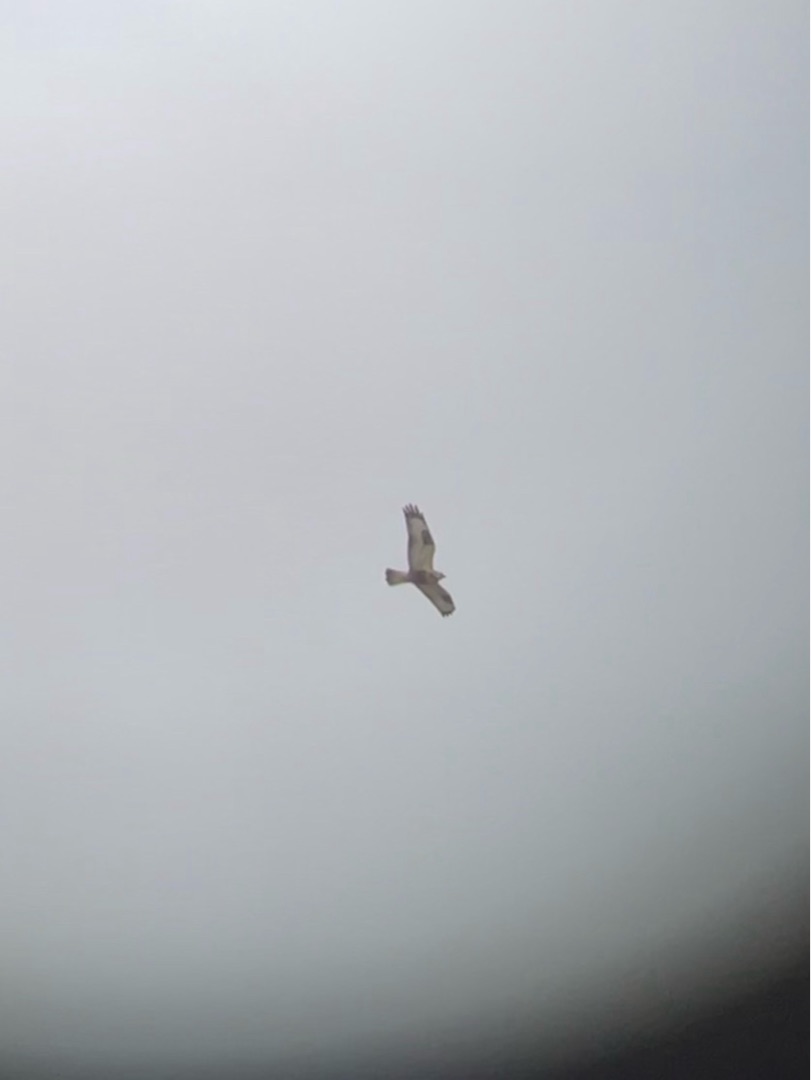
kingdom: Animalia
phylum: Chordata
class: Aves
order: Accipitriformes
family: Accipitridae
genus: Buteo
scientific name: Buteo lagopus
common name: Fjeldvåge
